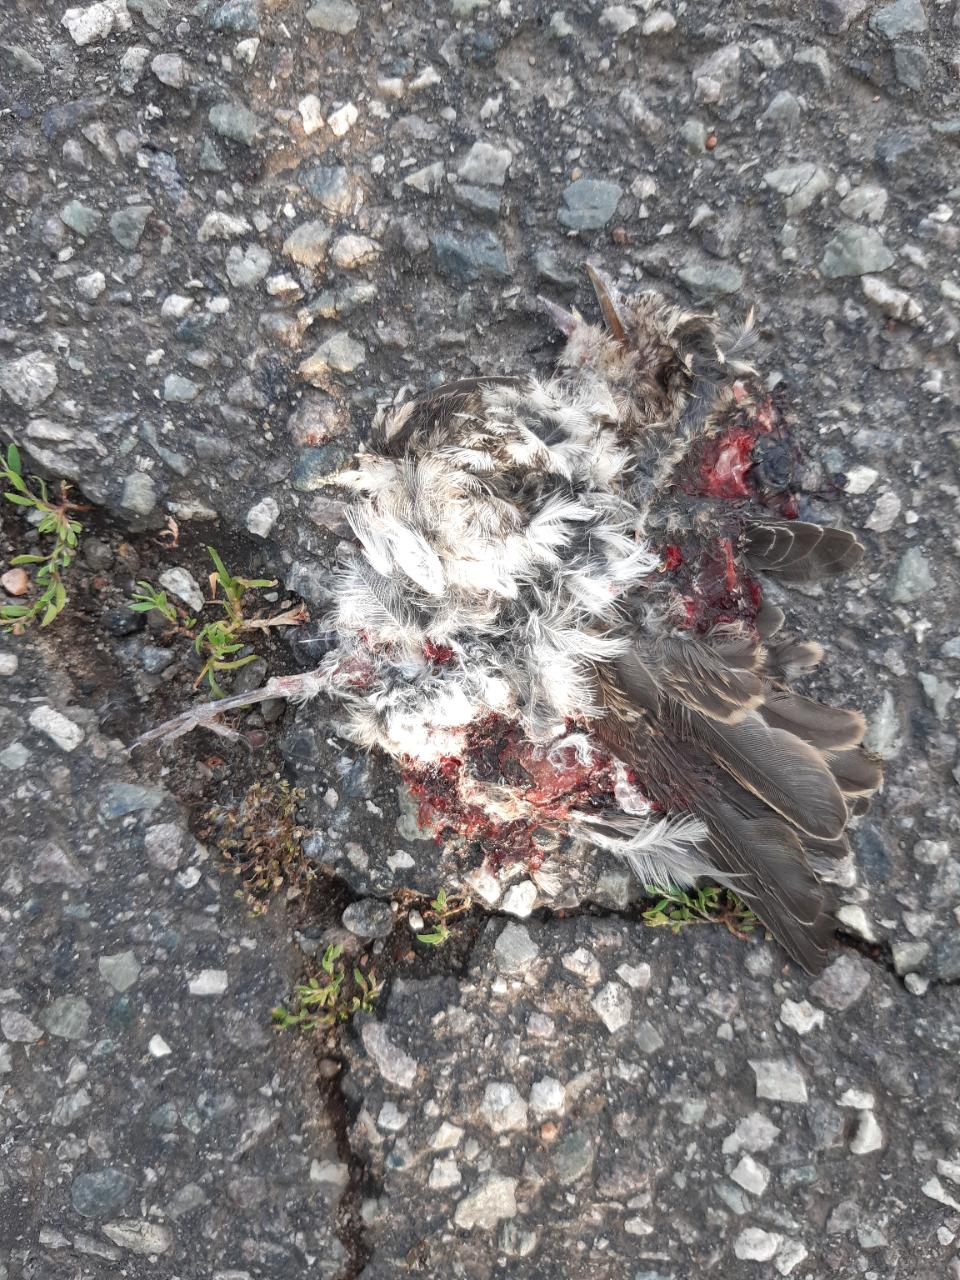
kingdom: Animalia
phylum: Chordata
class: Aves
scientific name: Aves
